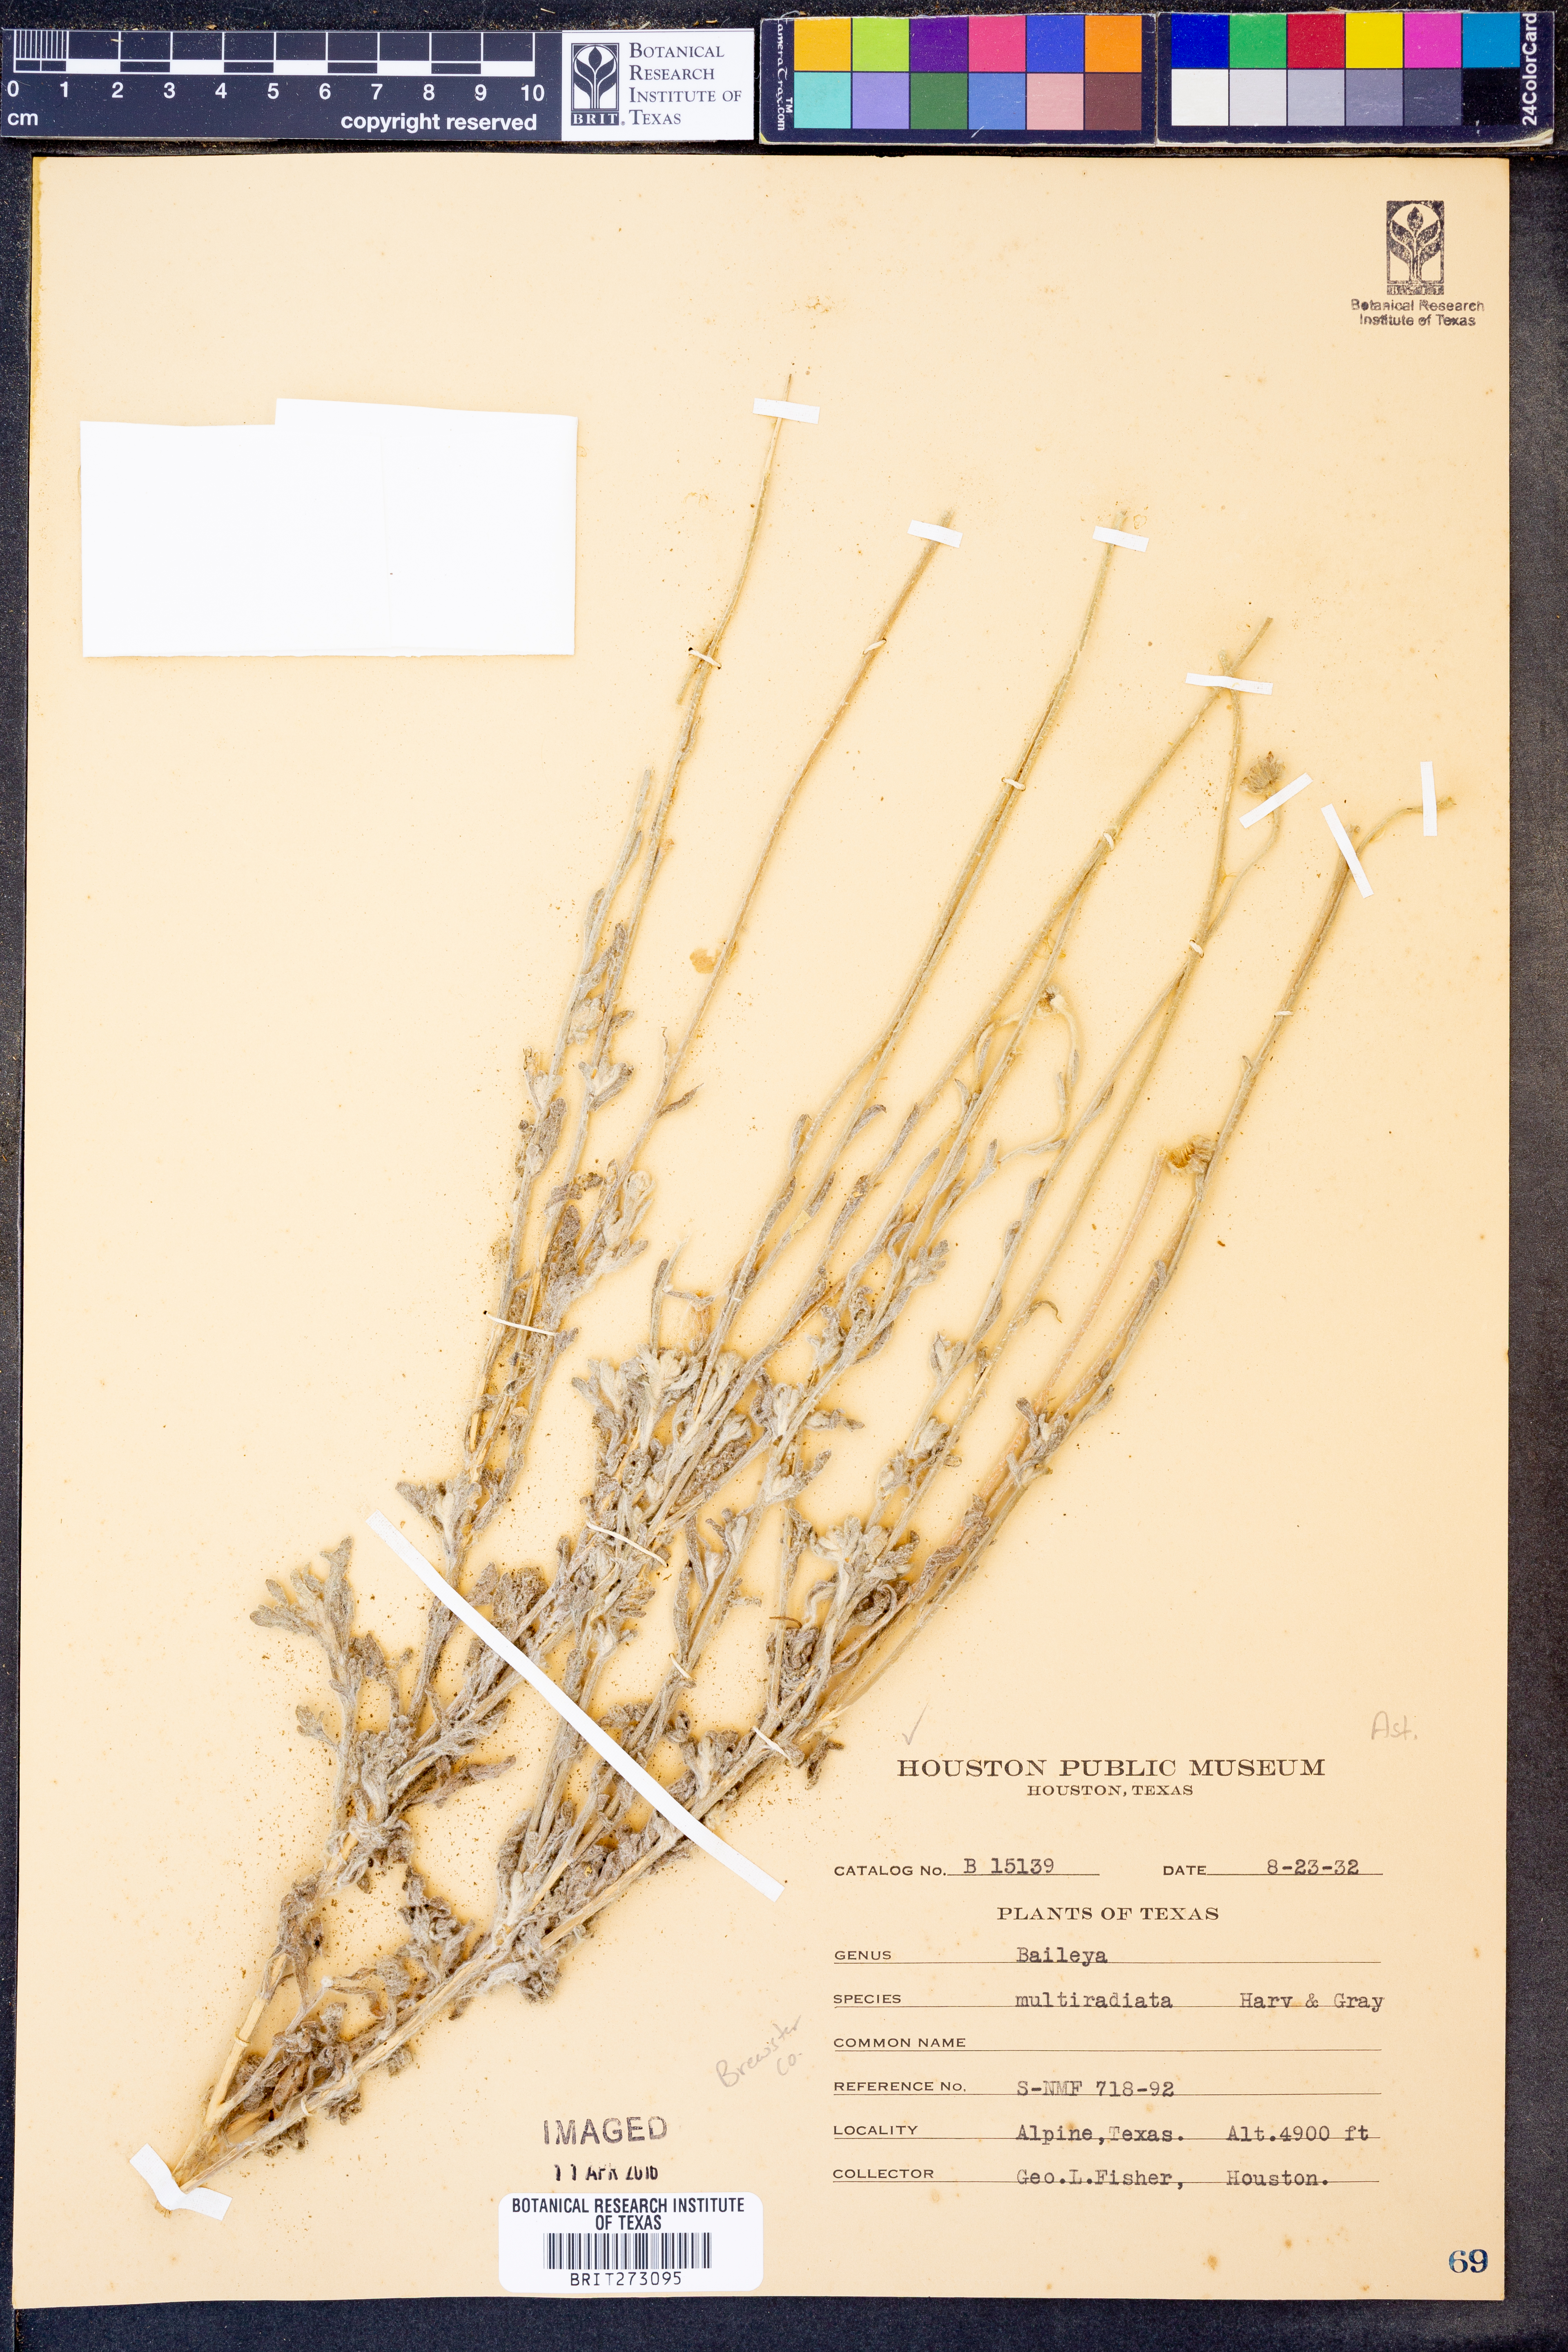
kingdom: Plantae
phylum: Tracheophyta
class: Magnoliopsida
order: Asterales
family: Asteraceae
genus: Baileya
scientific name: Baileya multiradiata
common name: Desert-marigold
